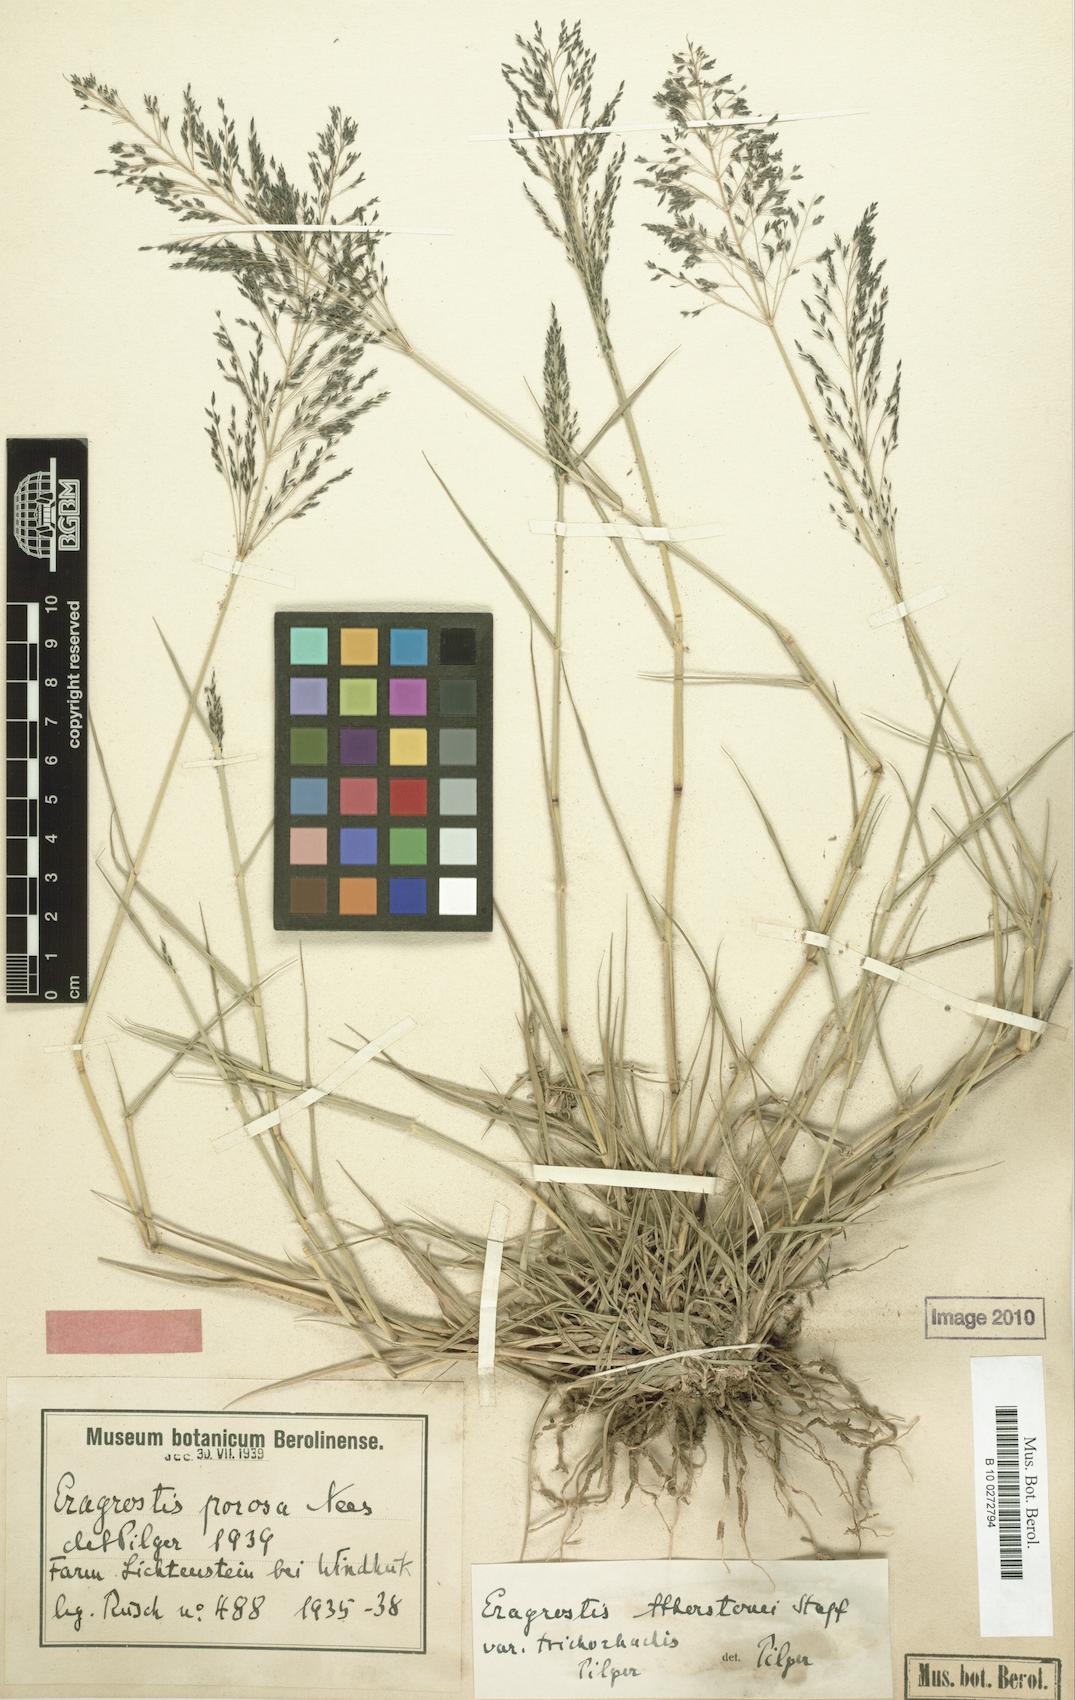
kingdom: Plantae
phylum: Tracheophyta
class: Liliopsida
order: Poales
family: Poaceae
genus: Eragrostis
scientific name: Eragrostis cylindriflora
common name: Cylinderflower lovegrass
